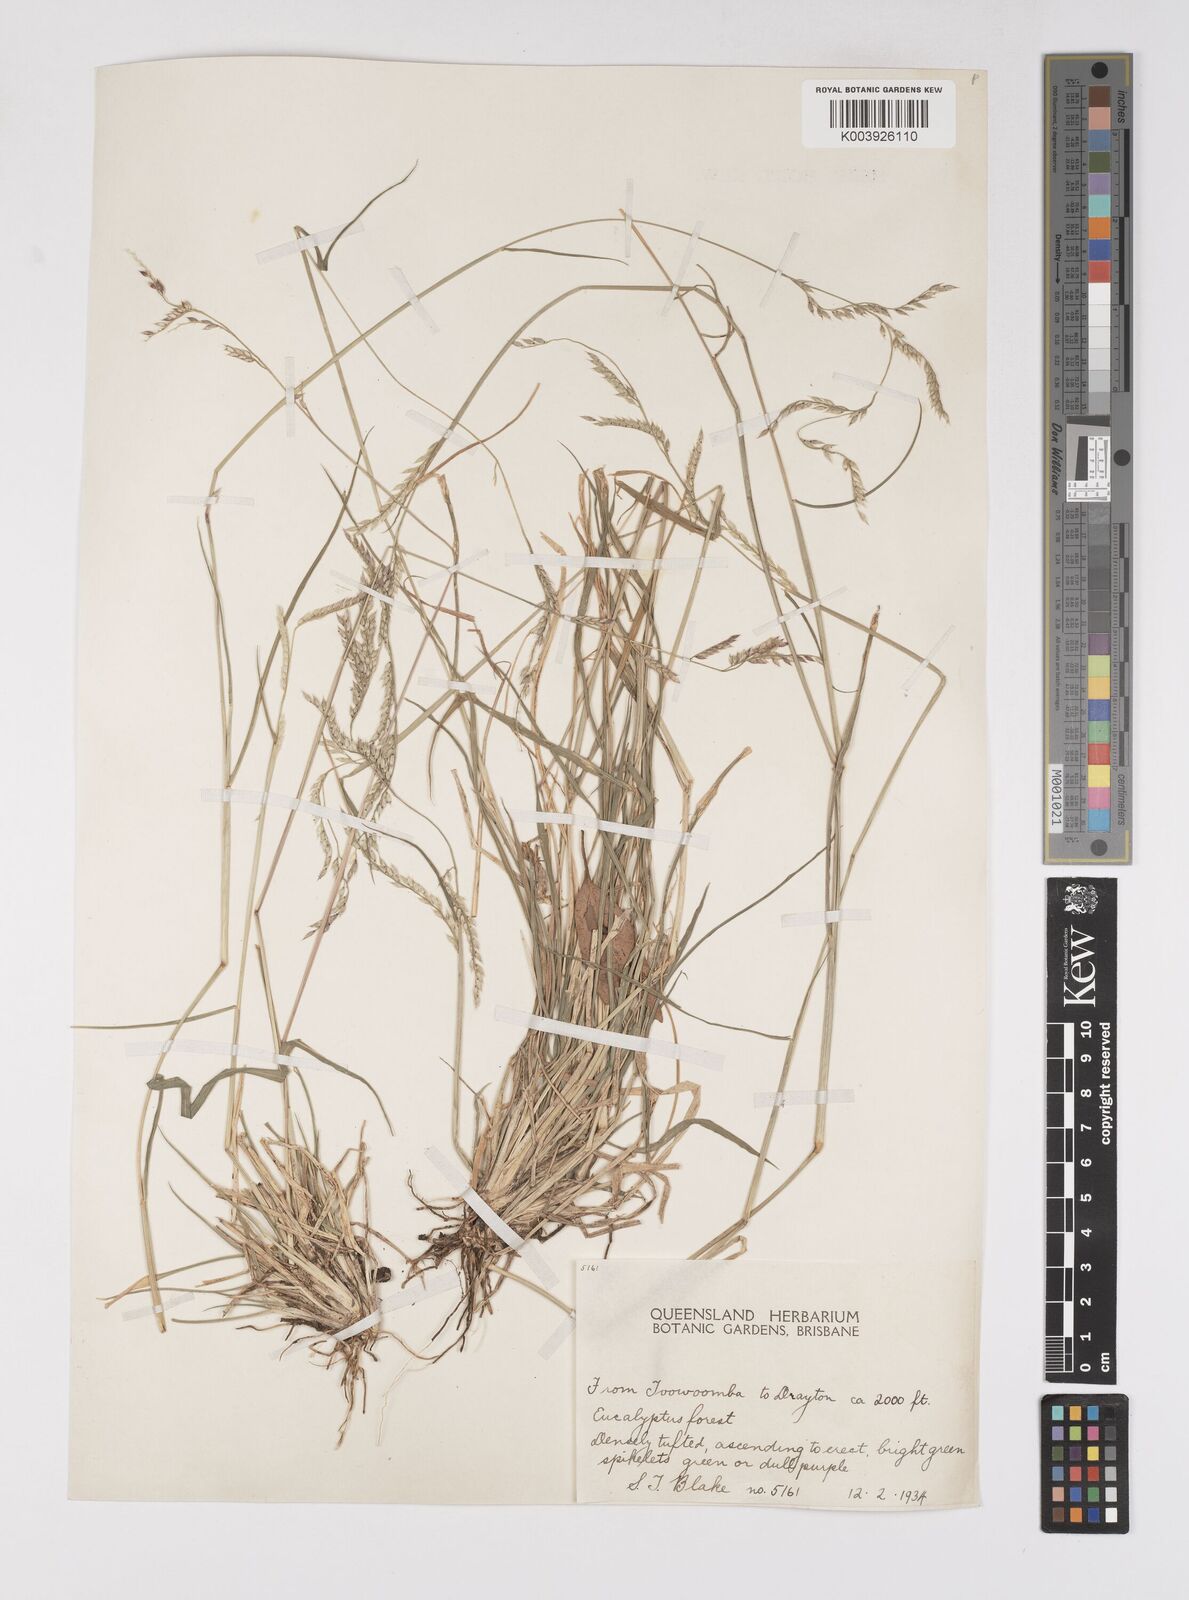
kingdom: Plantae
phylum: Tracheophyta
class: Liliopsida
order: Poales
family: Poaceae
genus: Eriochloa
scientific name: Eriochloa
